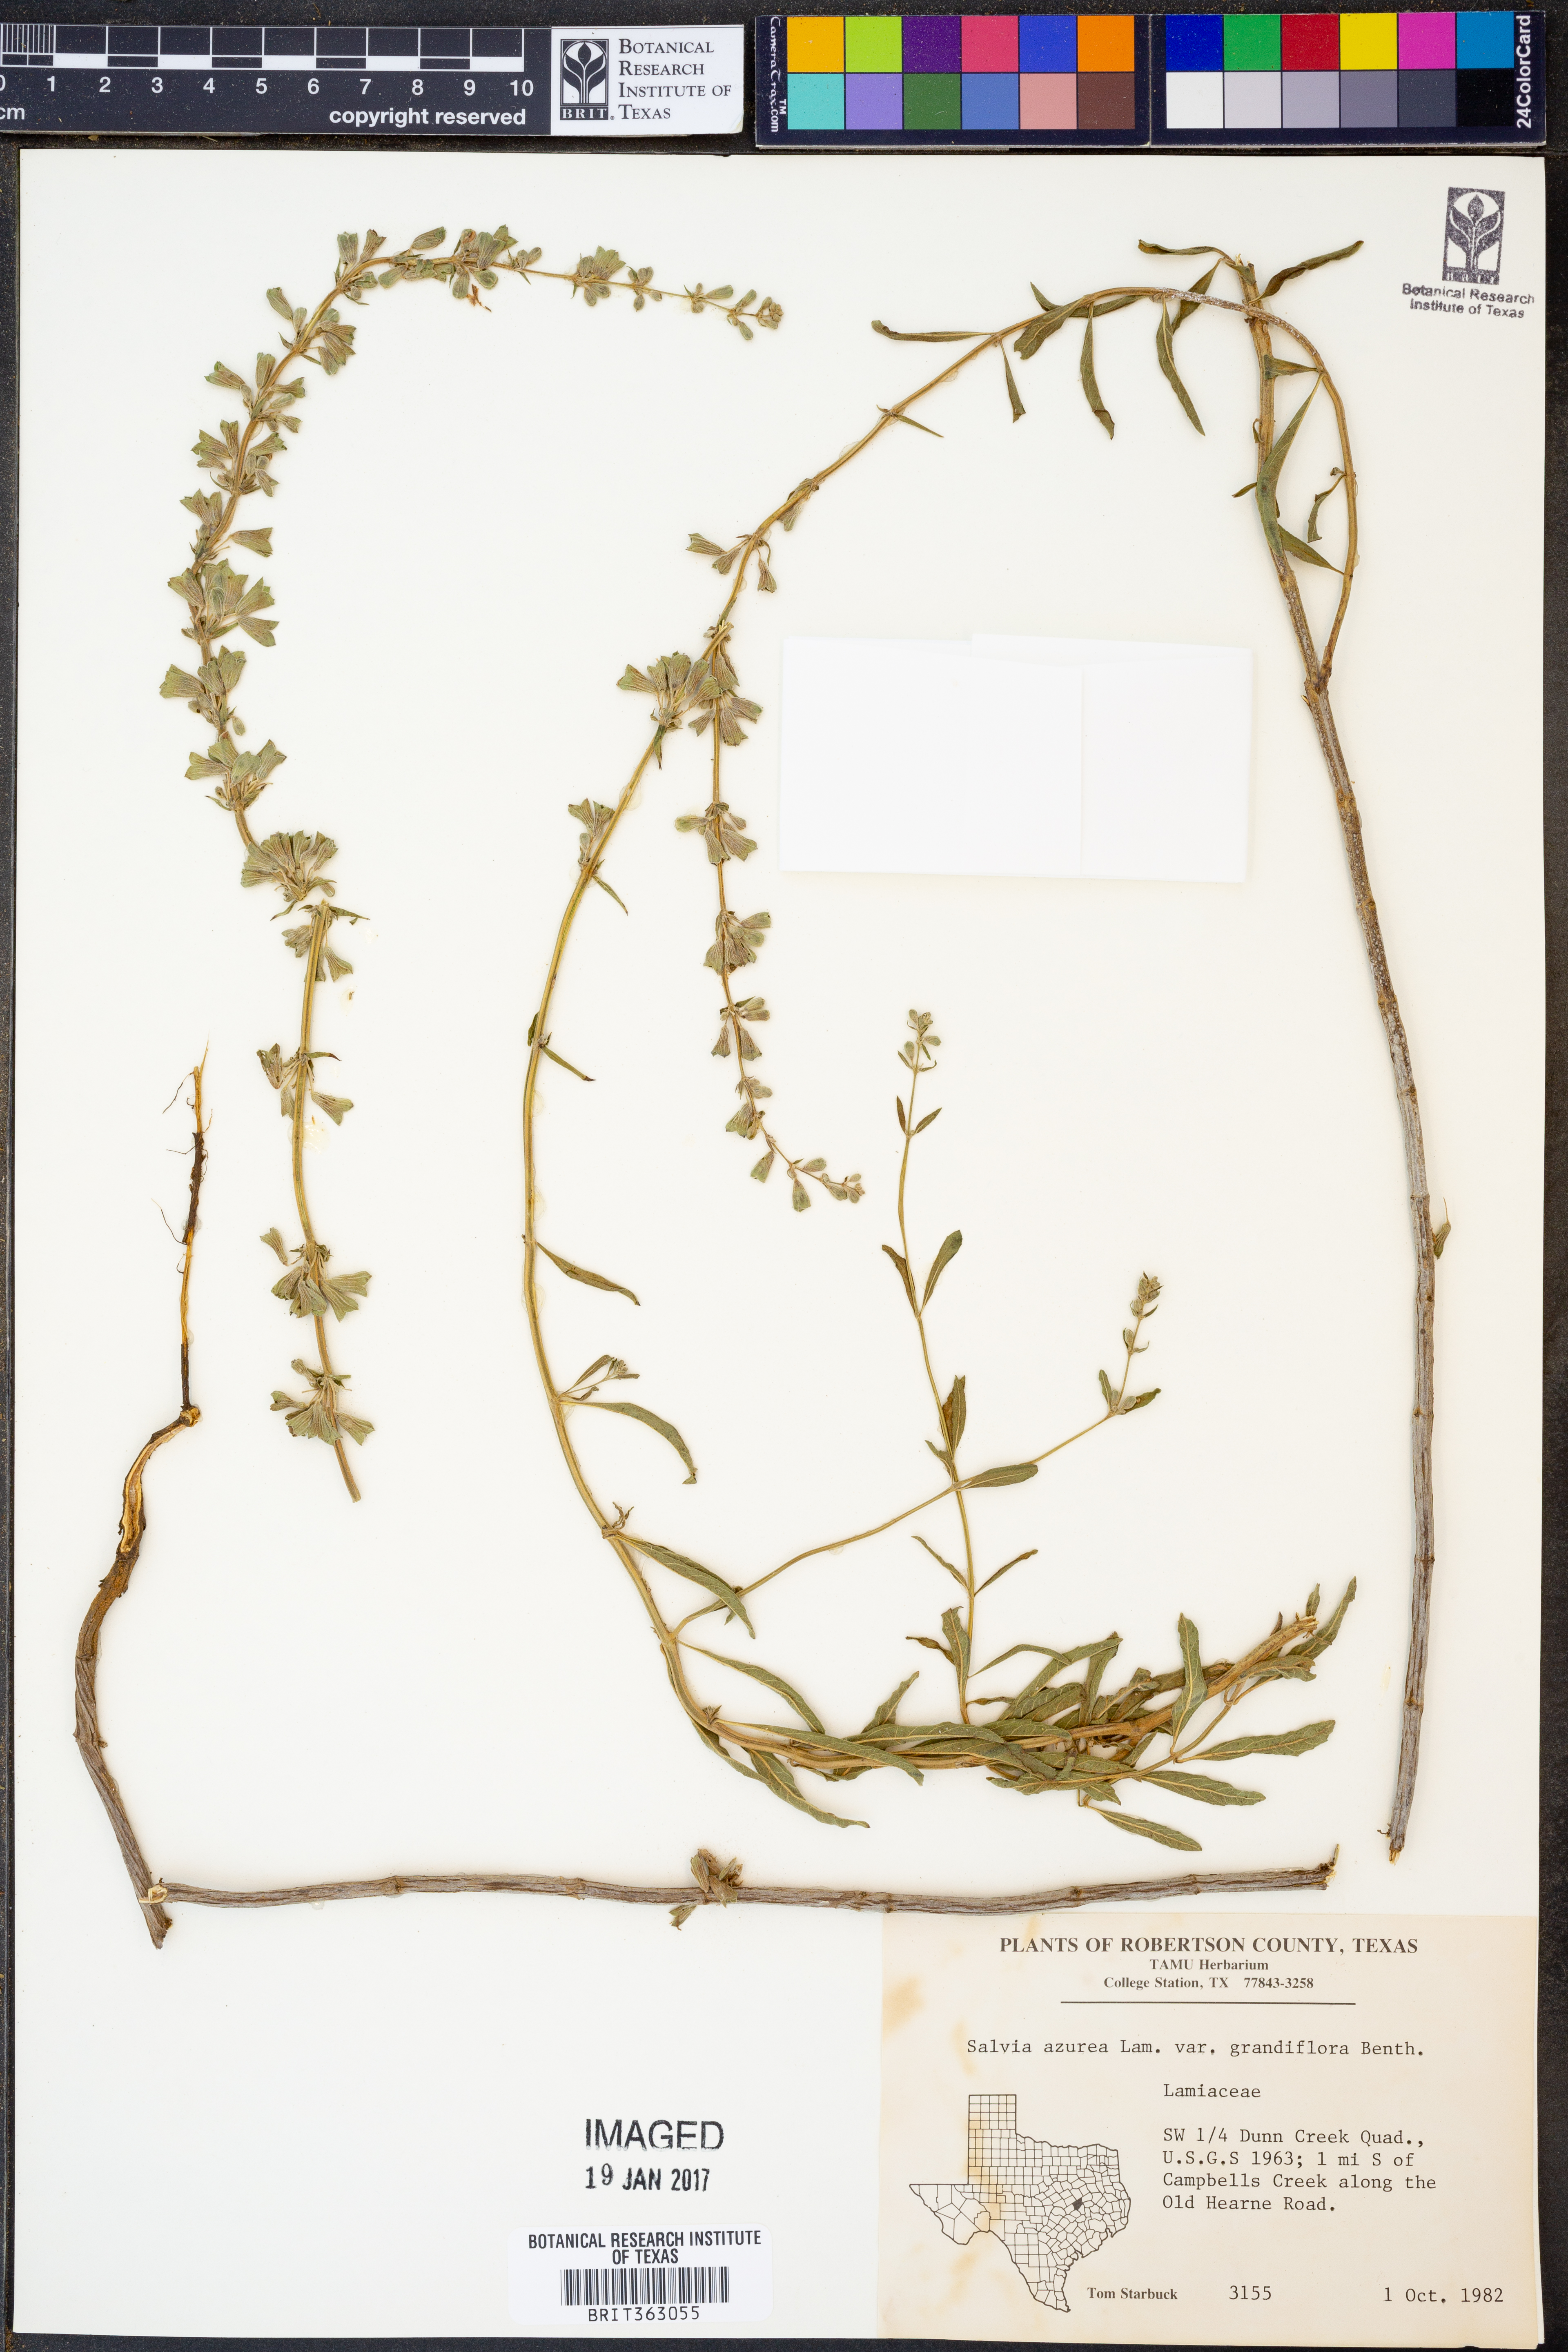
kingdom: Plantae
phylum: Tracheophyta
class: Magnoliopsida
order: Lamiales
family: Lamiaceae
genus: Salvia
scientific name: Salvia azurea
